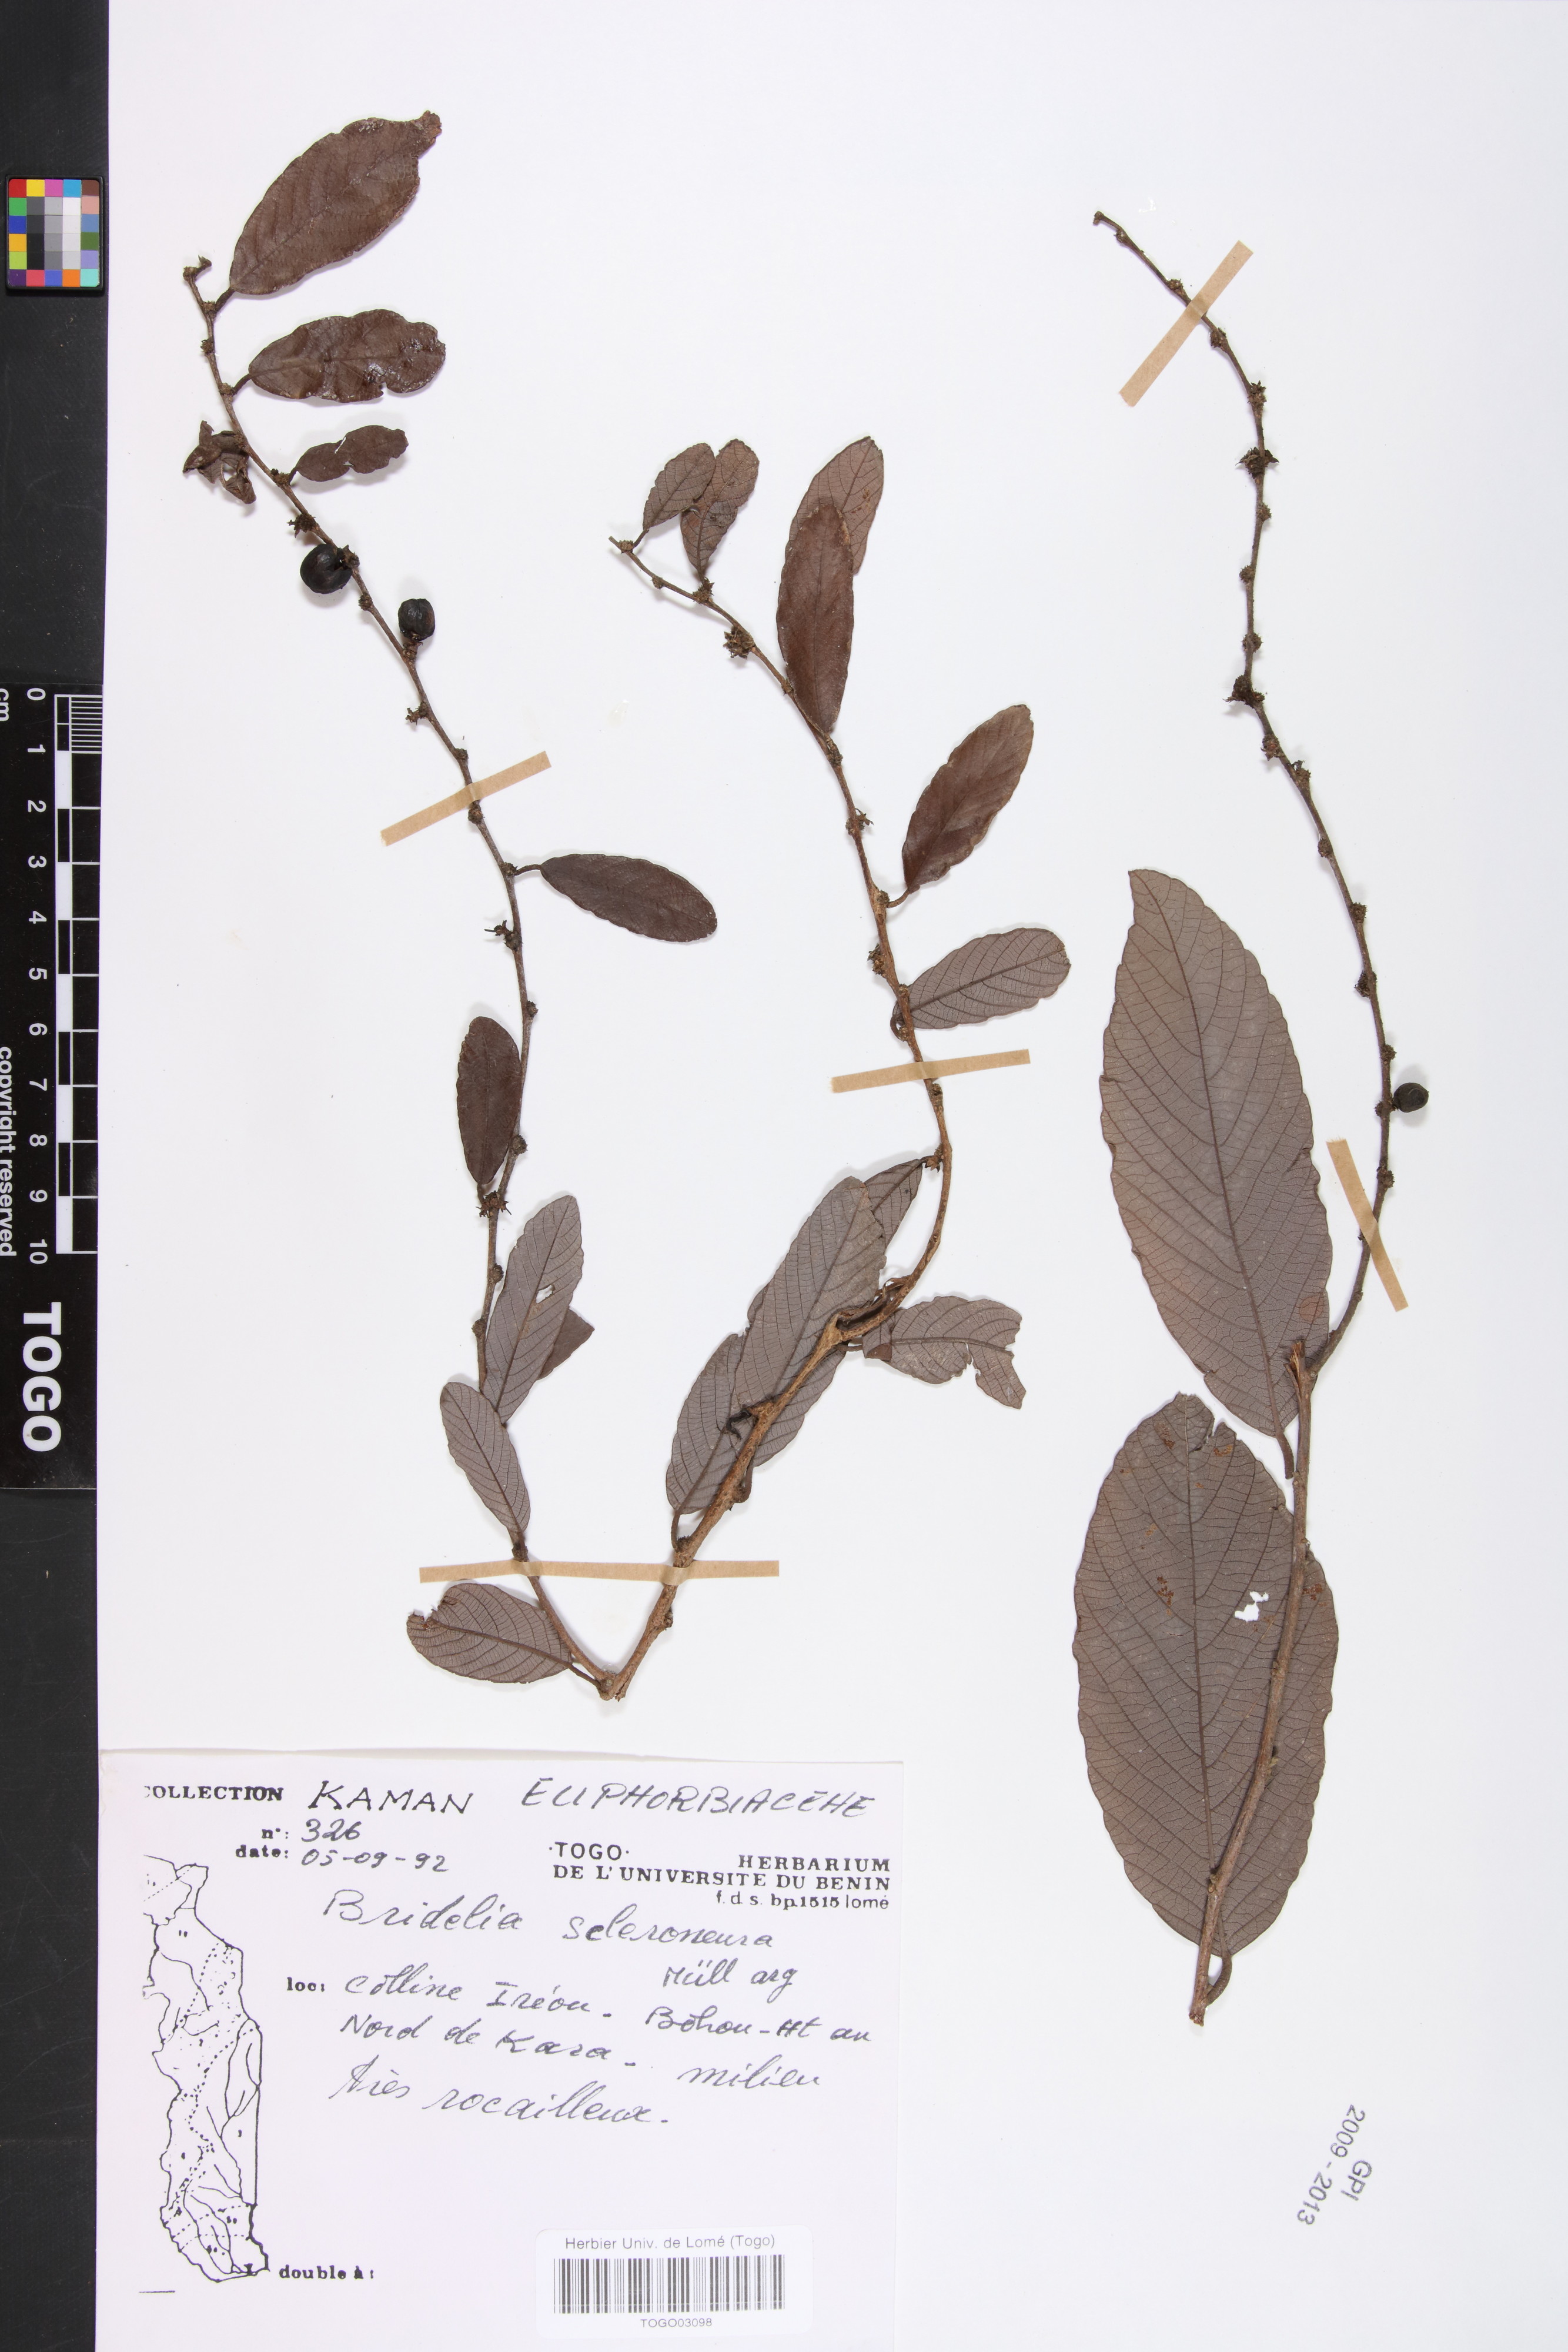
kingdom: Plantae
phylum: Tracheophyta
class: Magnoliopsida
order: Malpighiales
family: Phyllanthaceae
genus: Bridelia
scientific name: Bridelia scleroneura
